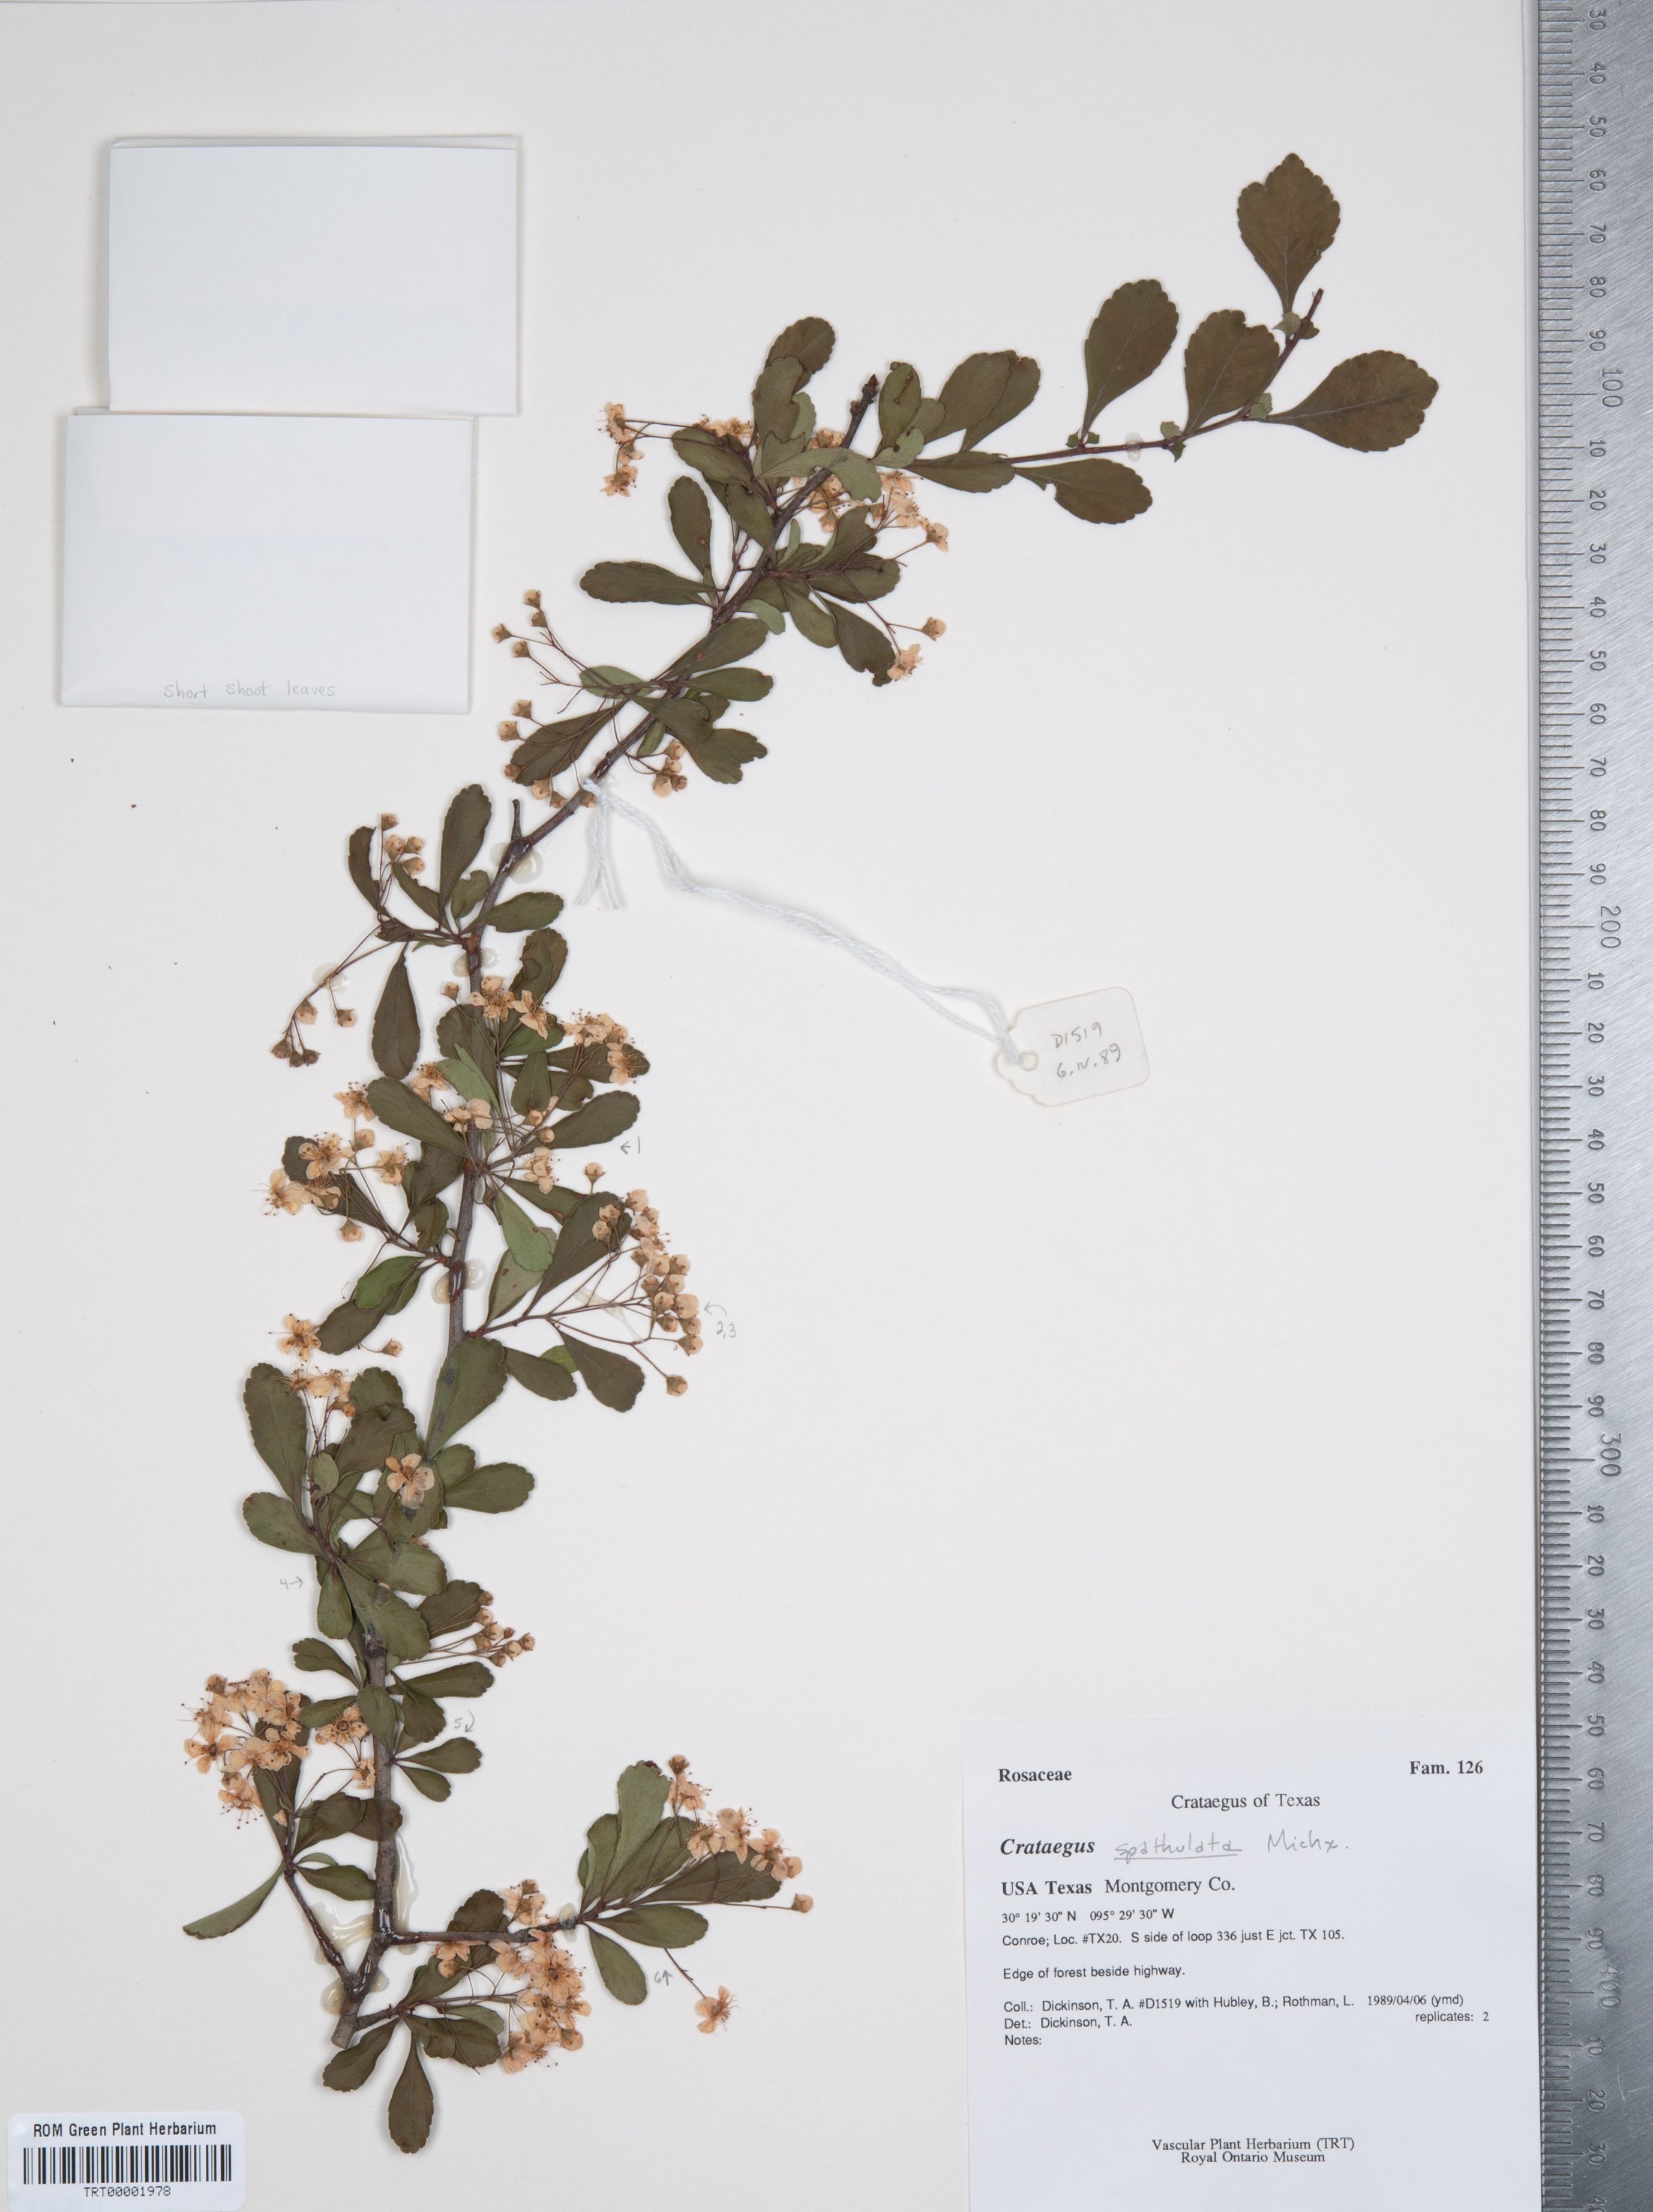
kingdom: Plantae
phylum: Tracheophyta
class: Magnoliopsida
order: Rosales
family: Rosaceae
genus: Crataegus
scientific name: Crataegus spathulata
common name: Littlehip hawthorn
